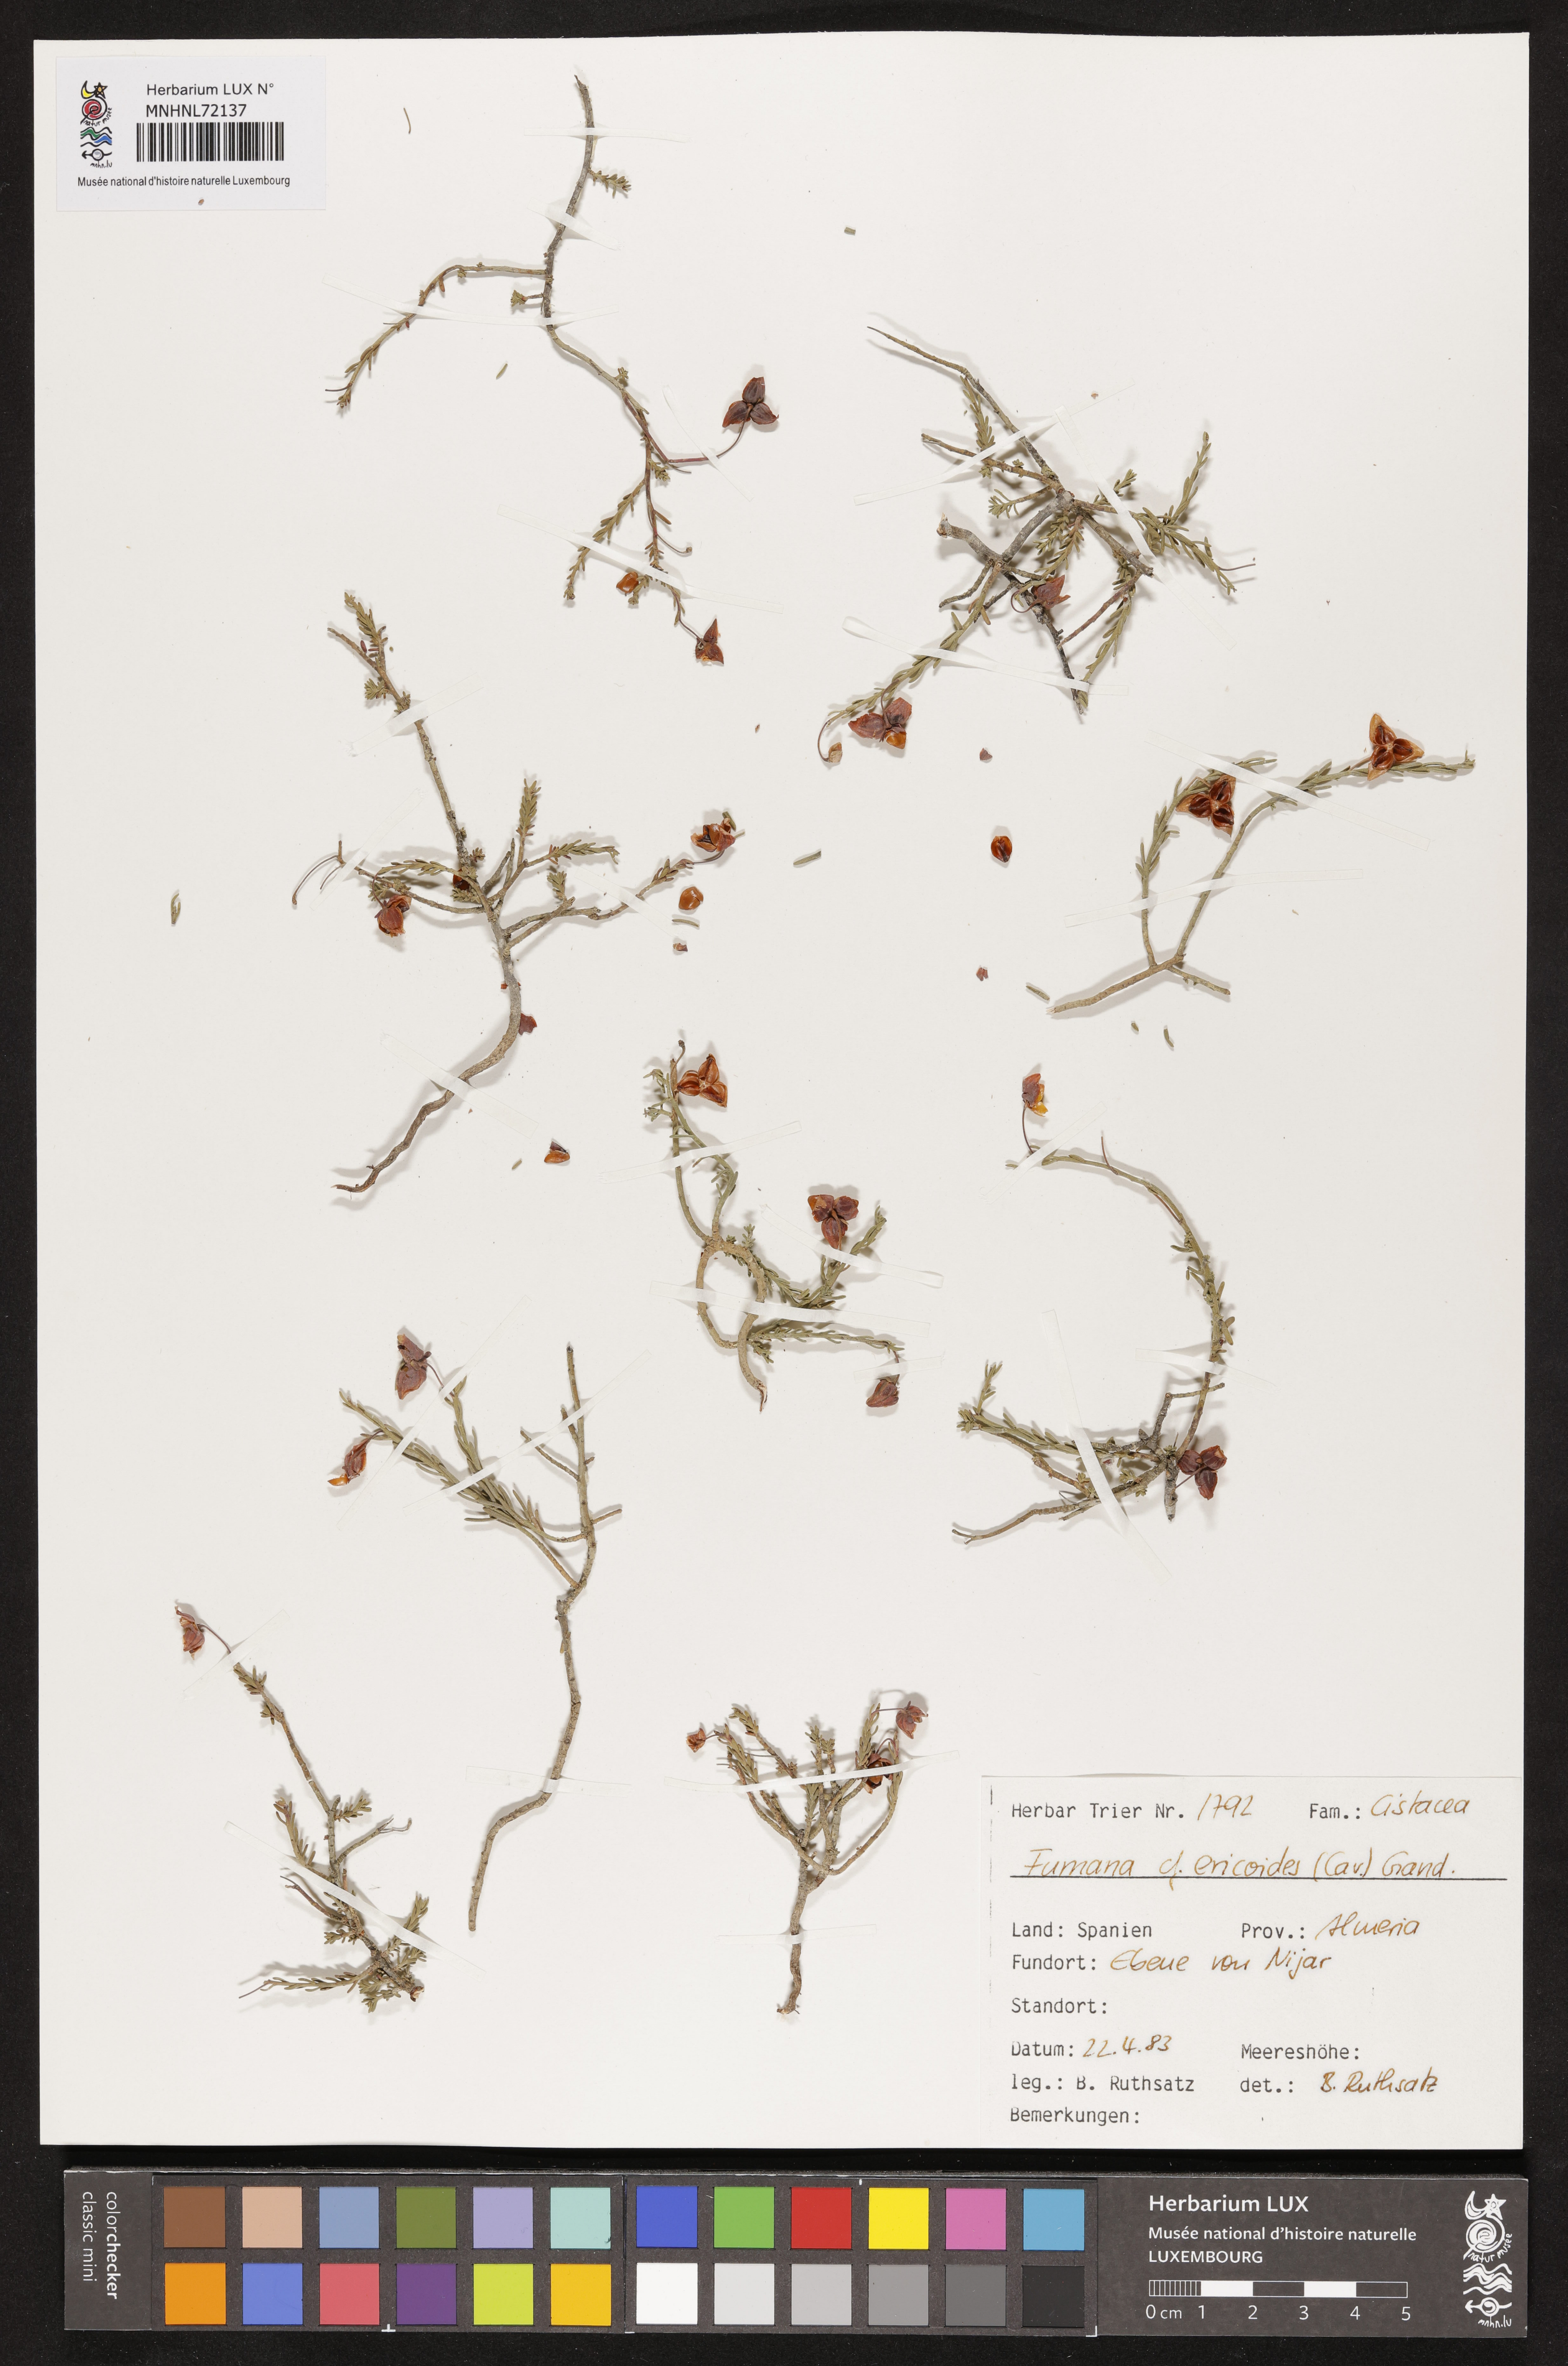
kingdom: Plantae
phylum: Tracheophyta
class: Magnoliopsida
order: Malvales
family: Cistaceae
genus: Fumana
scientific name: Fumana ericoides
